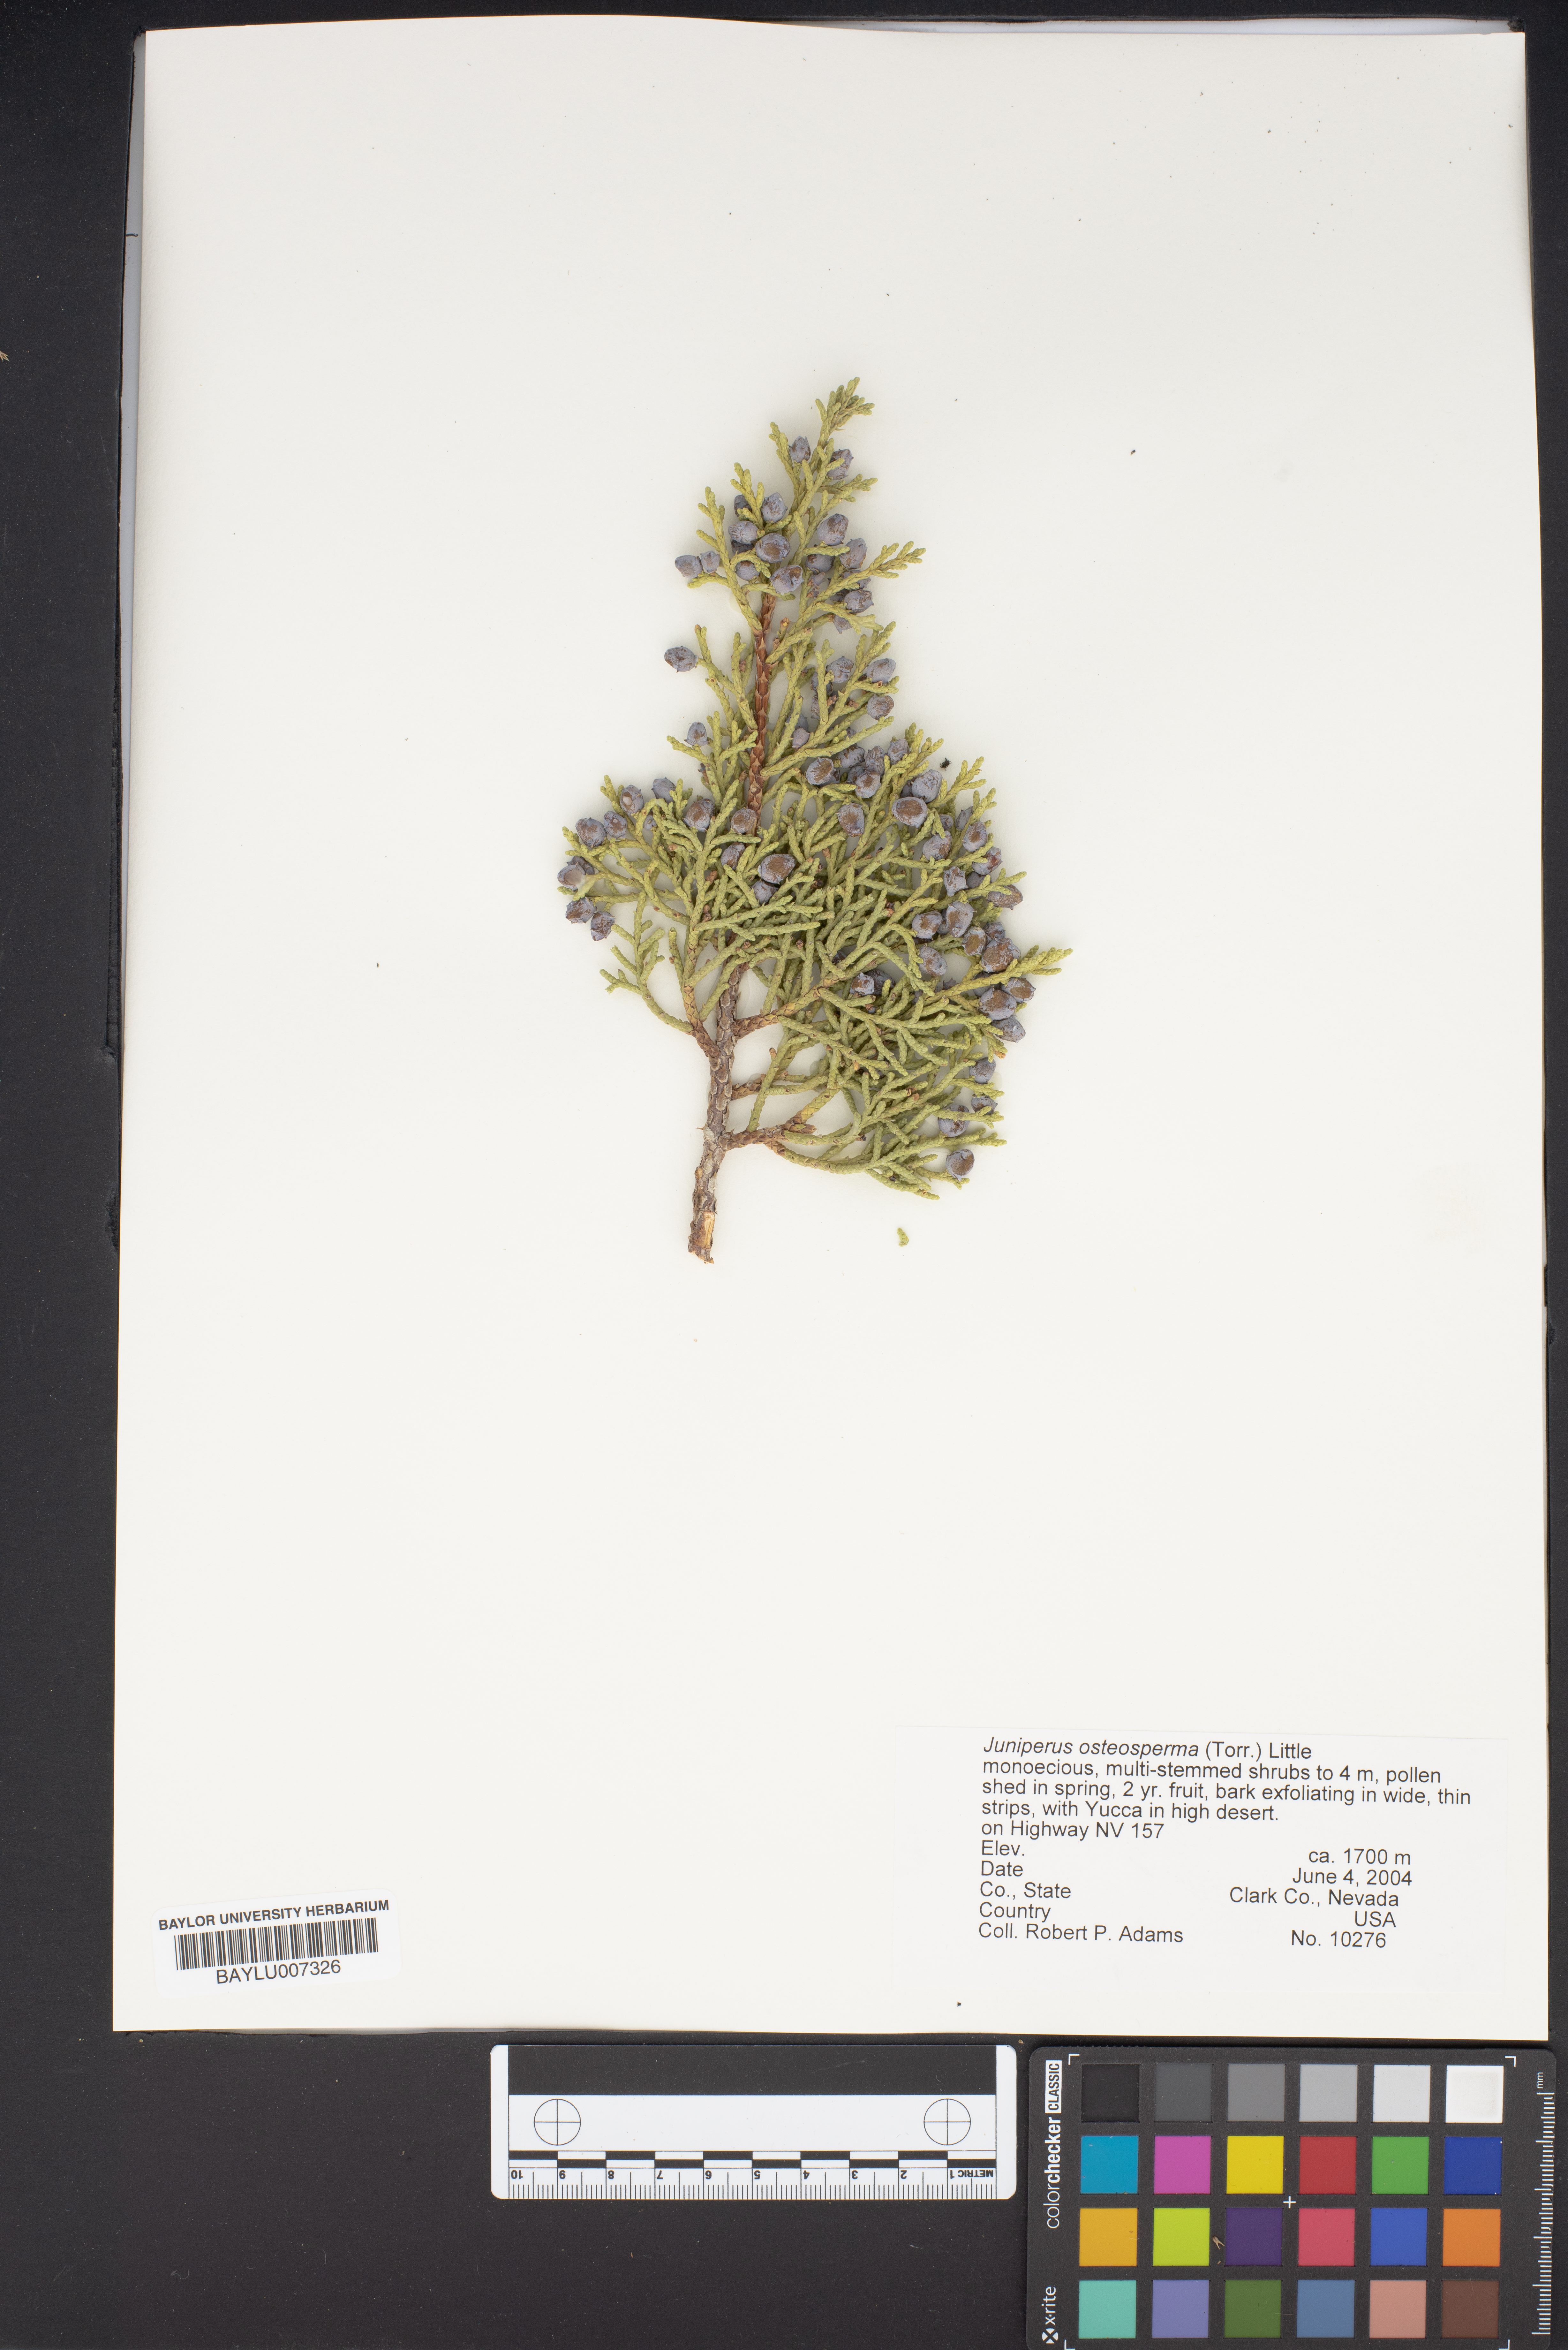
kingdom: Plantae
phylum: Tracheophyta
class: Pinopsida
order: Pinales
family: Cupressaceae
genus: Juniperus
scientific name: Juniperus osteosperma
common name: Utah juniper
